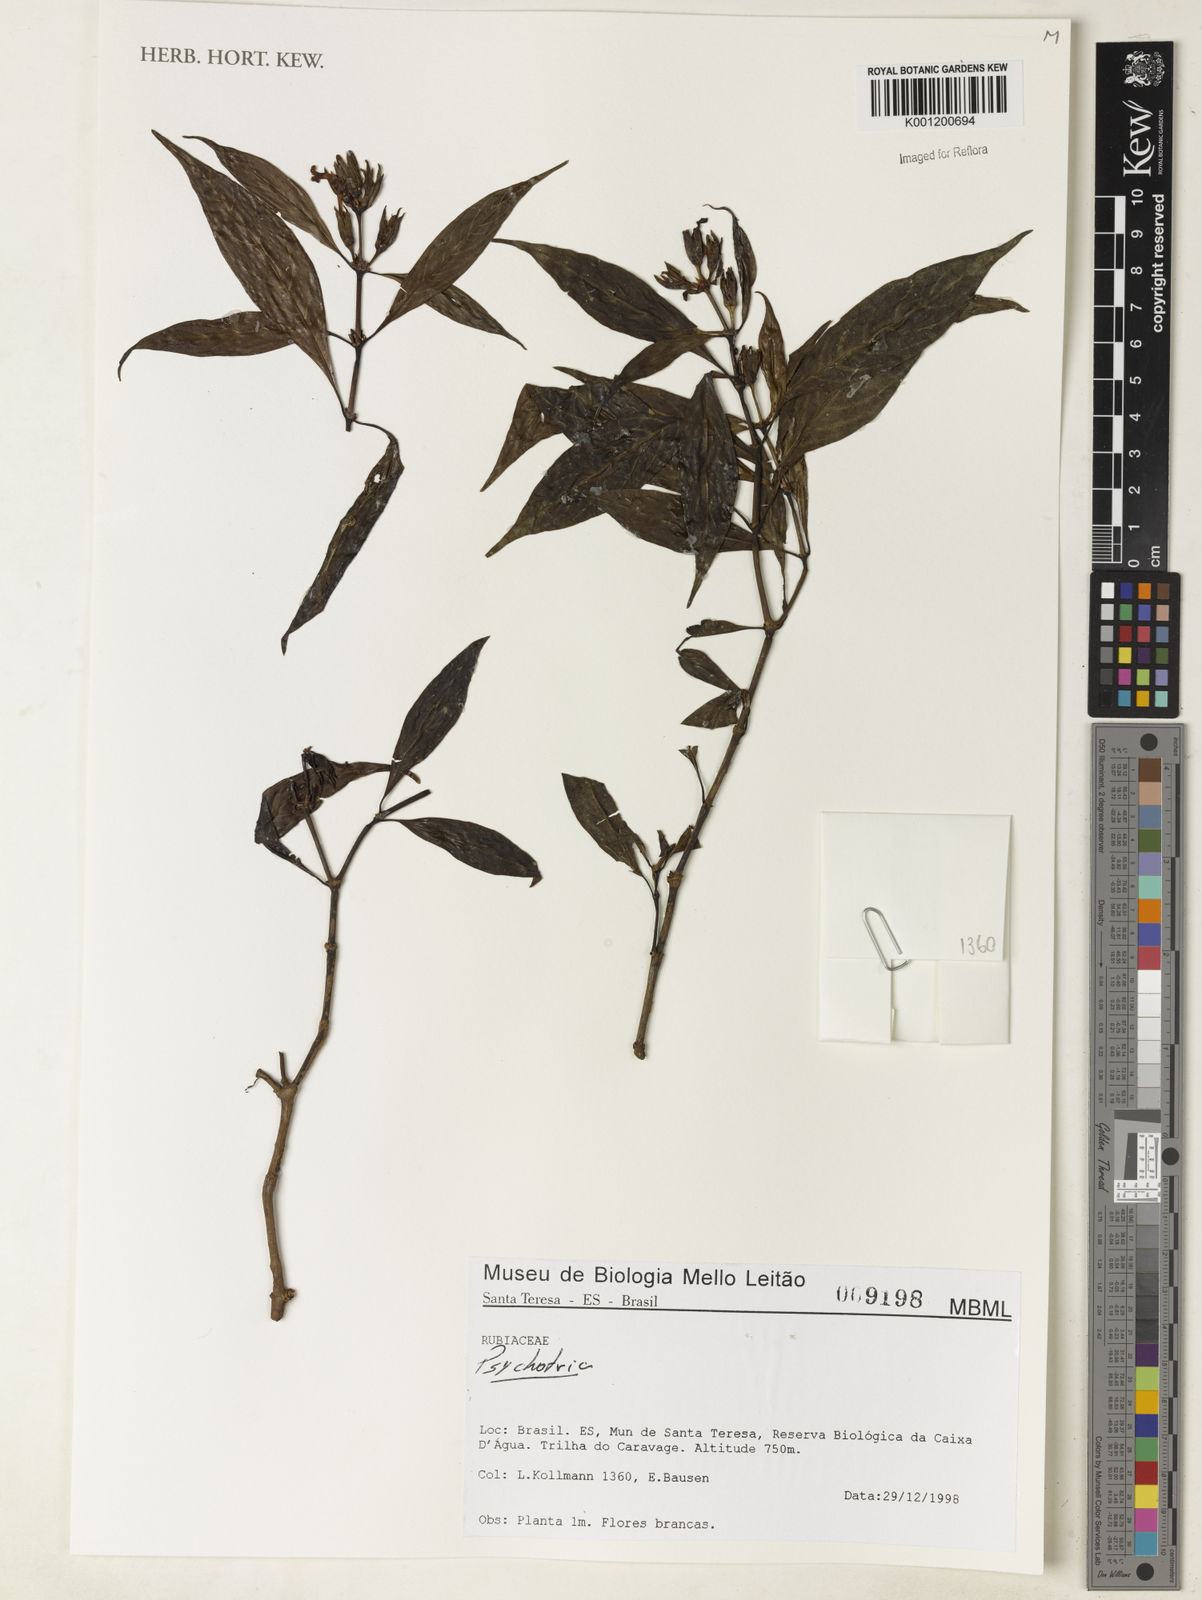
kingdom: Plantae
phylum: Tracheophyta
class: Magnoliopsida
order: Gentianales
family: Rubiaceae
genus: Psychotria
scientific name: Psychotria
